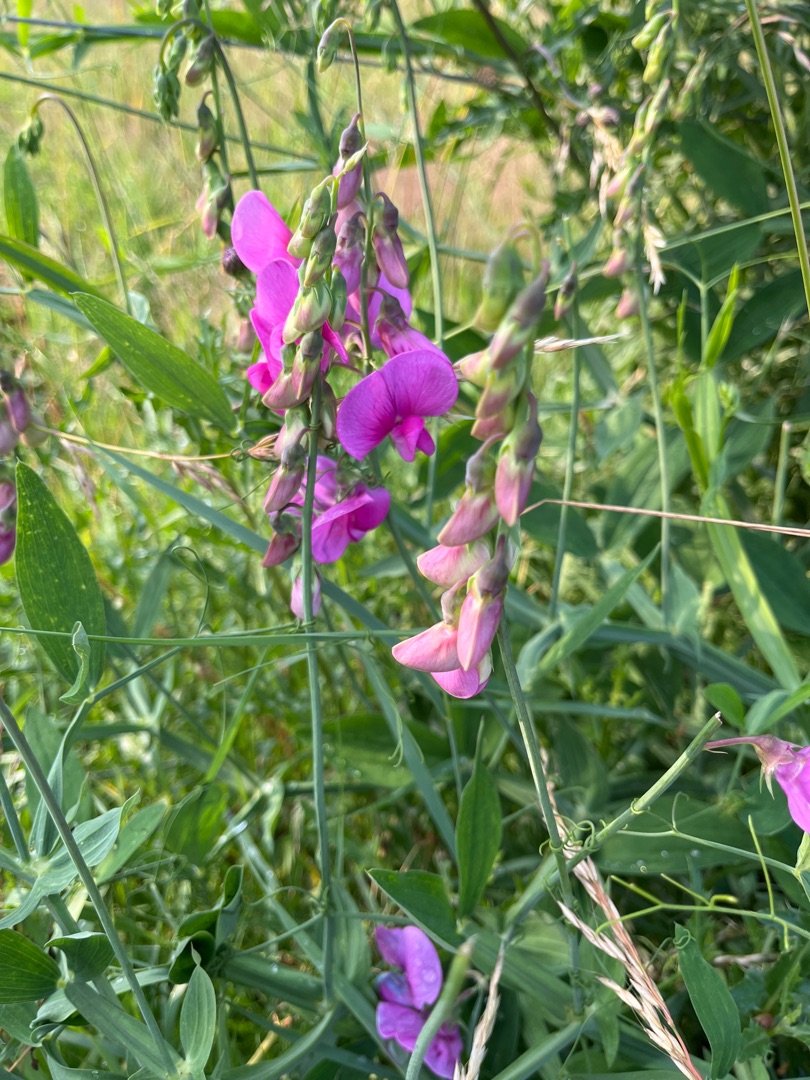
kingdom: Plantae
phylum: Tracheophyta
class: Magnoliopsida
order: Fabales
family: Fabaceae
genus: Lathyrus
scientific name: Lathyrus latifolius
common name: Flerårig ærteblomst
